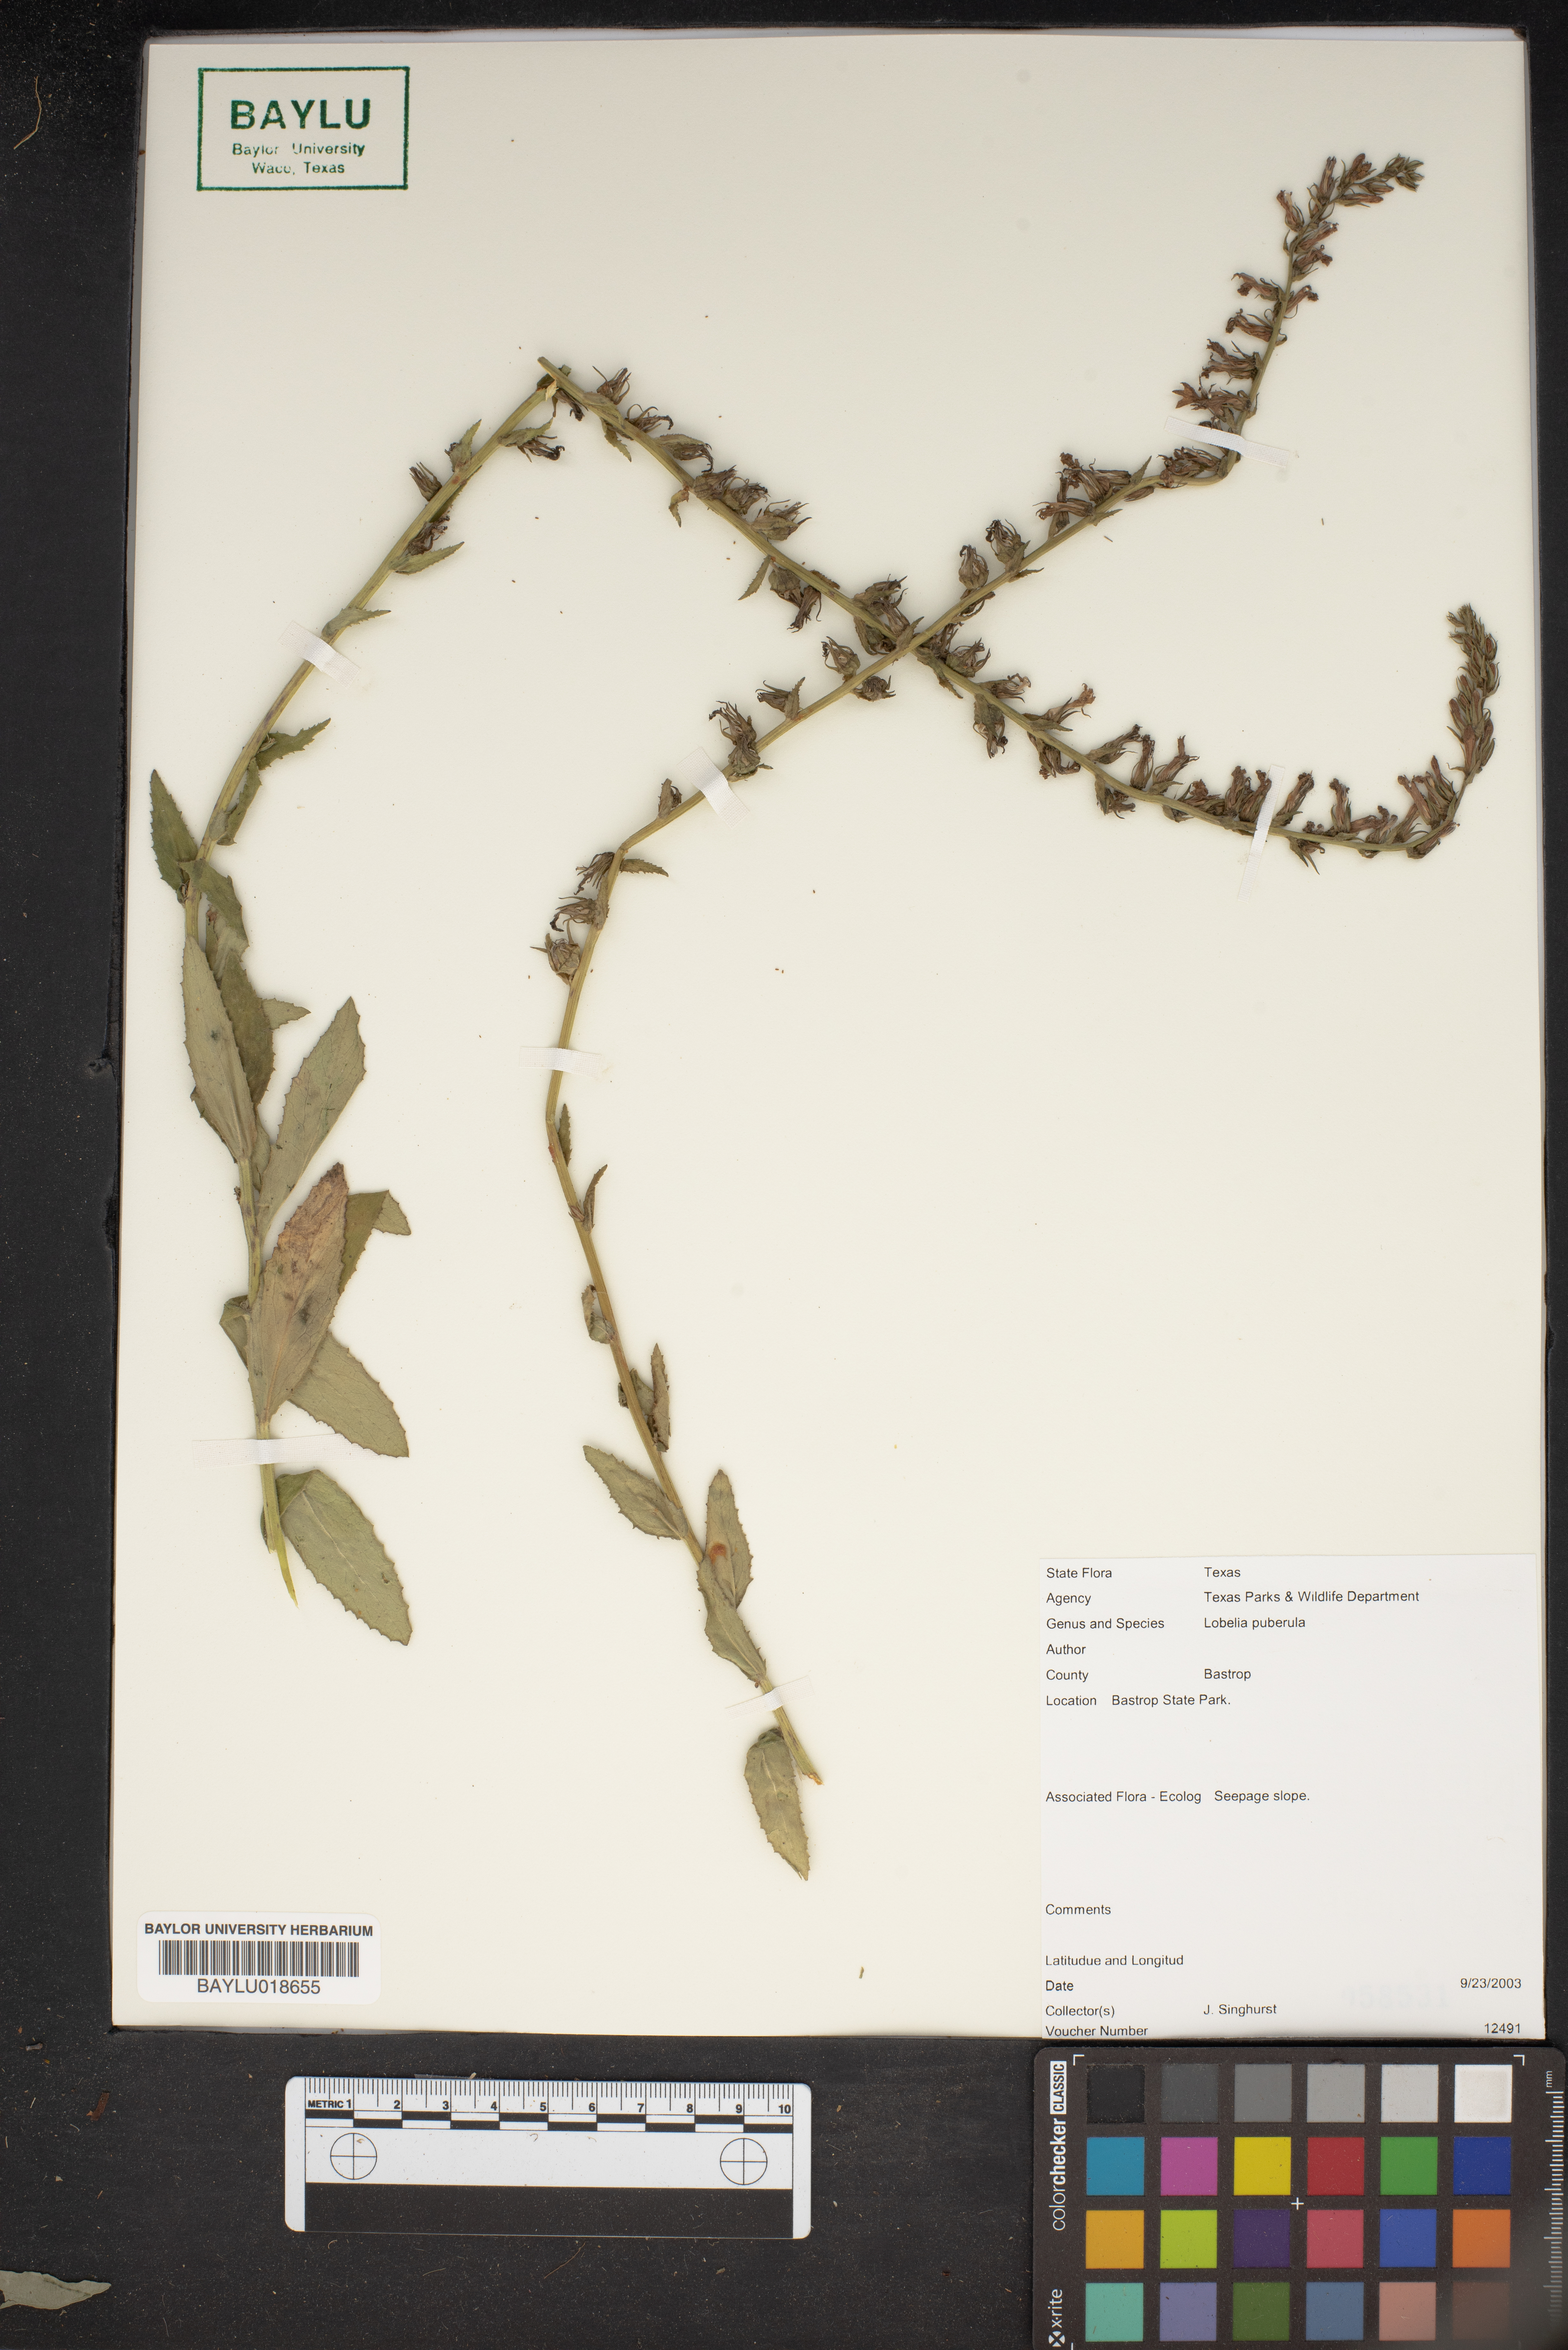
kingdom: Plantae
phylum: Tracheophyta
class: Magnoliopsida
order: Asterales
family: Campanulaceae
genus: Lobelia
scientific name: Lobelia puberula
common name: Purple dewdrop
